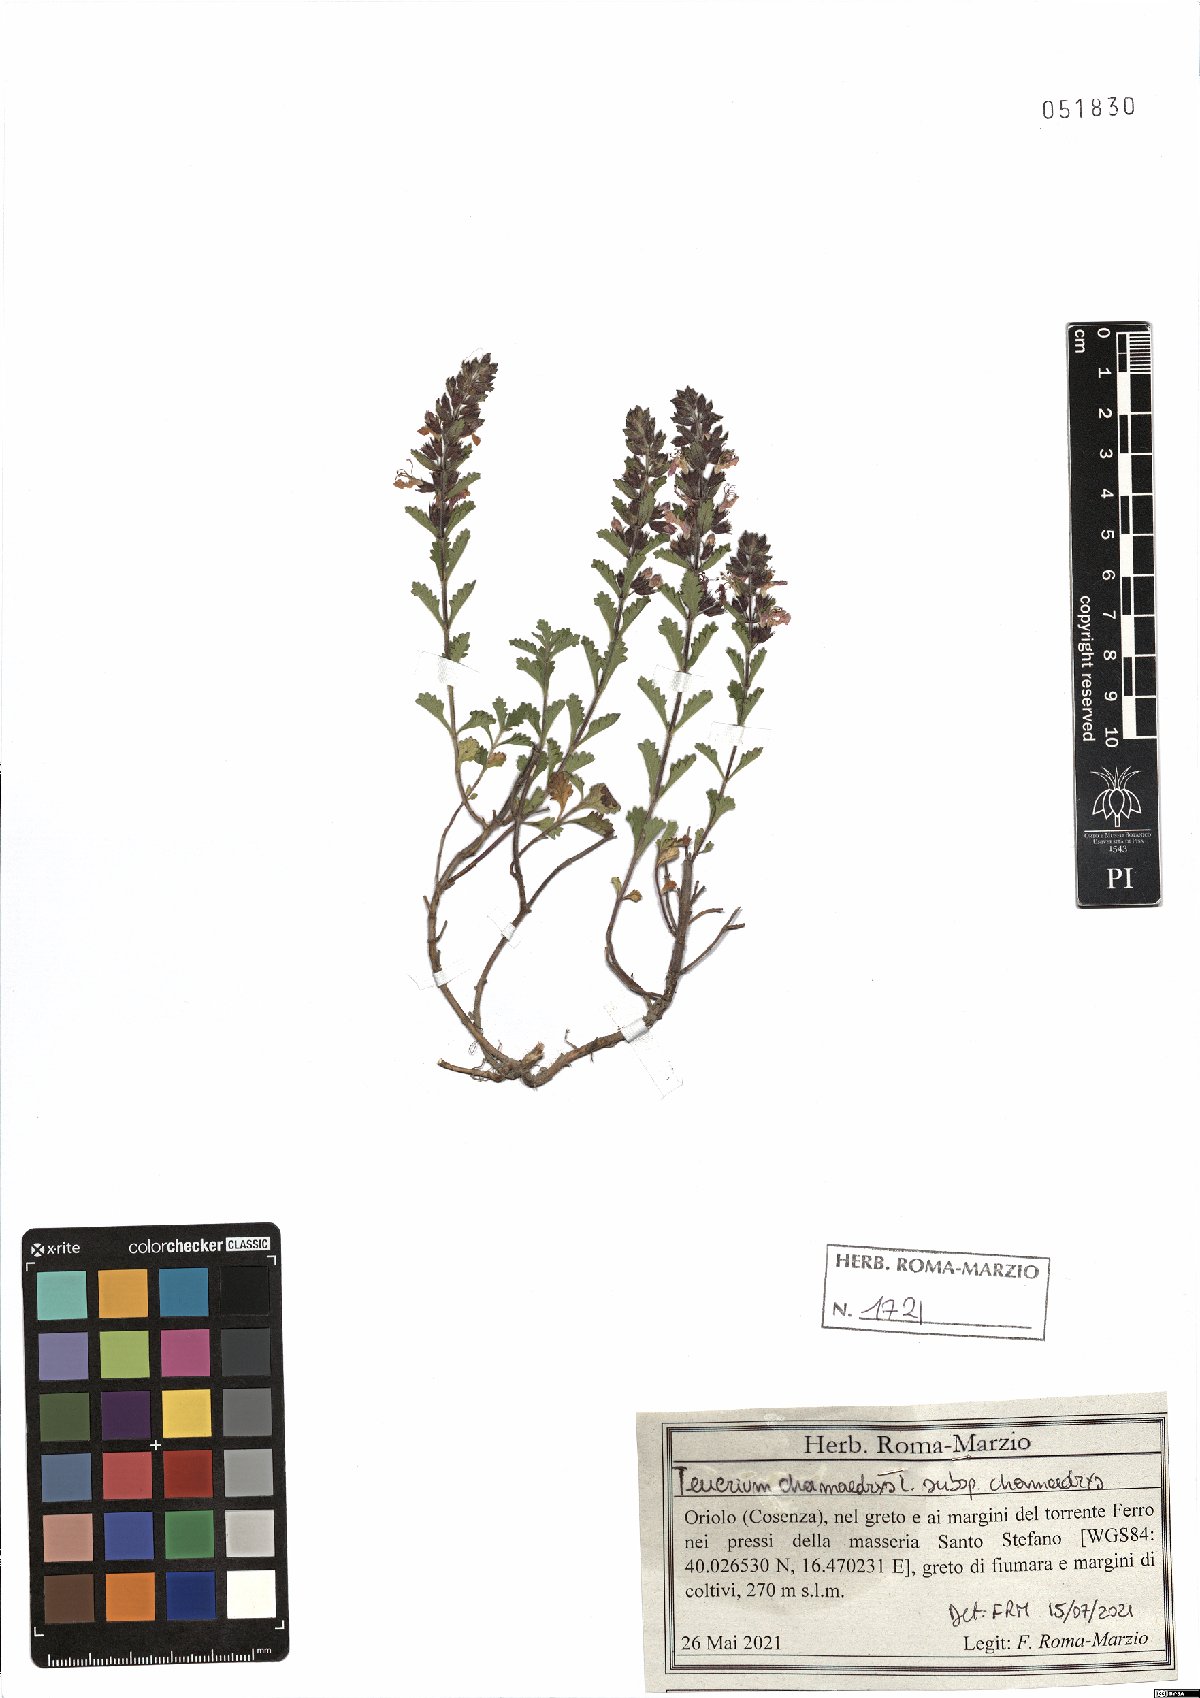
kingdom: Plantae
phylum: Tracheophyta
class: Magnoliopsida
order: Lamiales
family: Lamiaceae
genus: Teucrium
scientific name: Teucrium chamaedrys
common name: Wall germander
